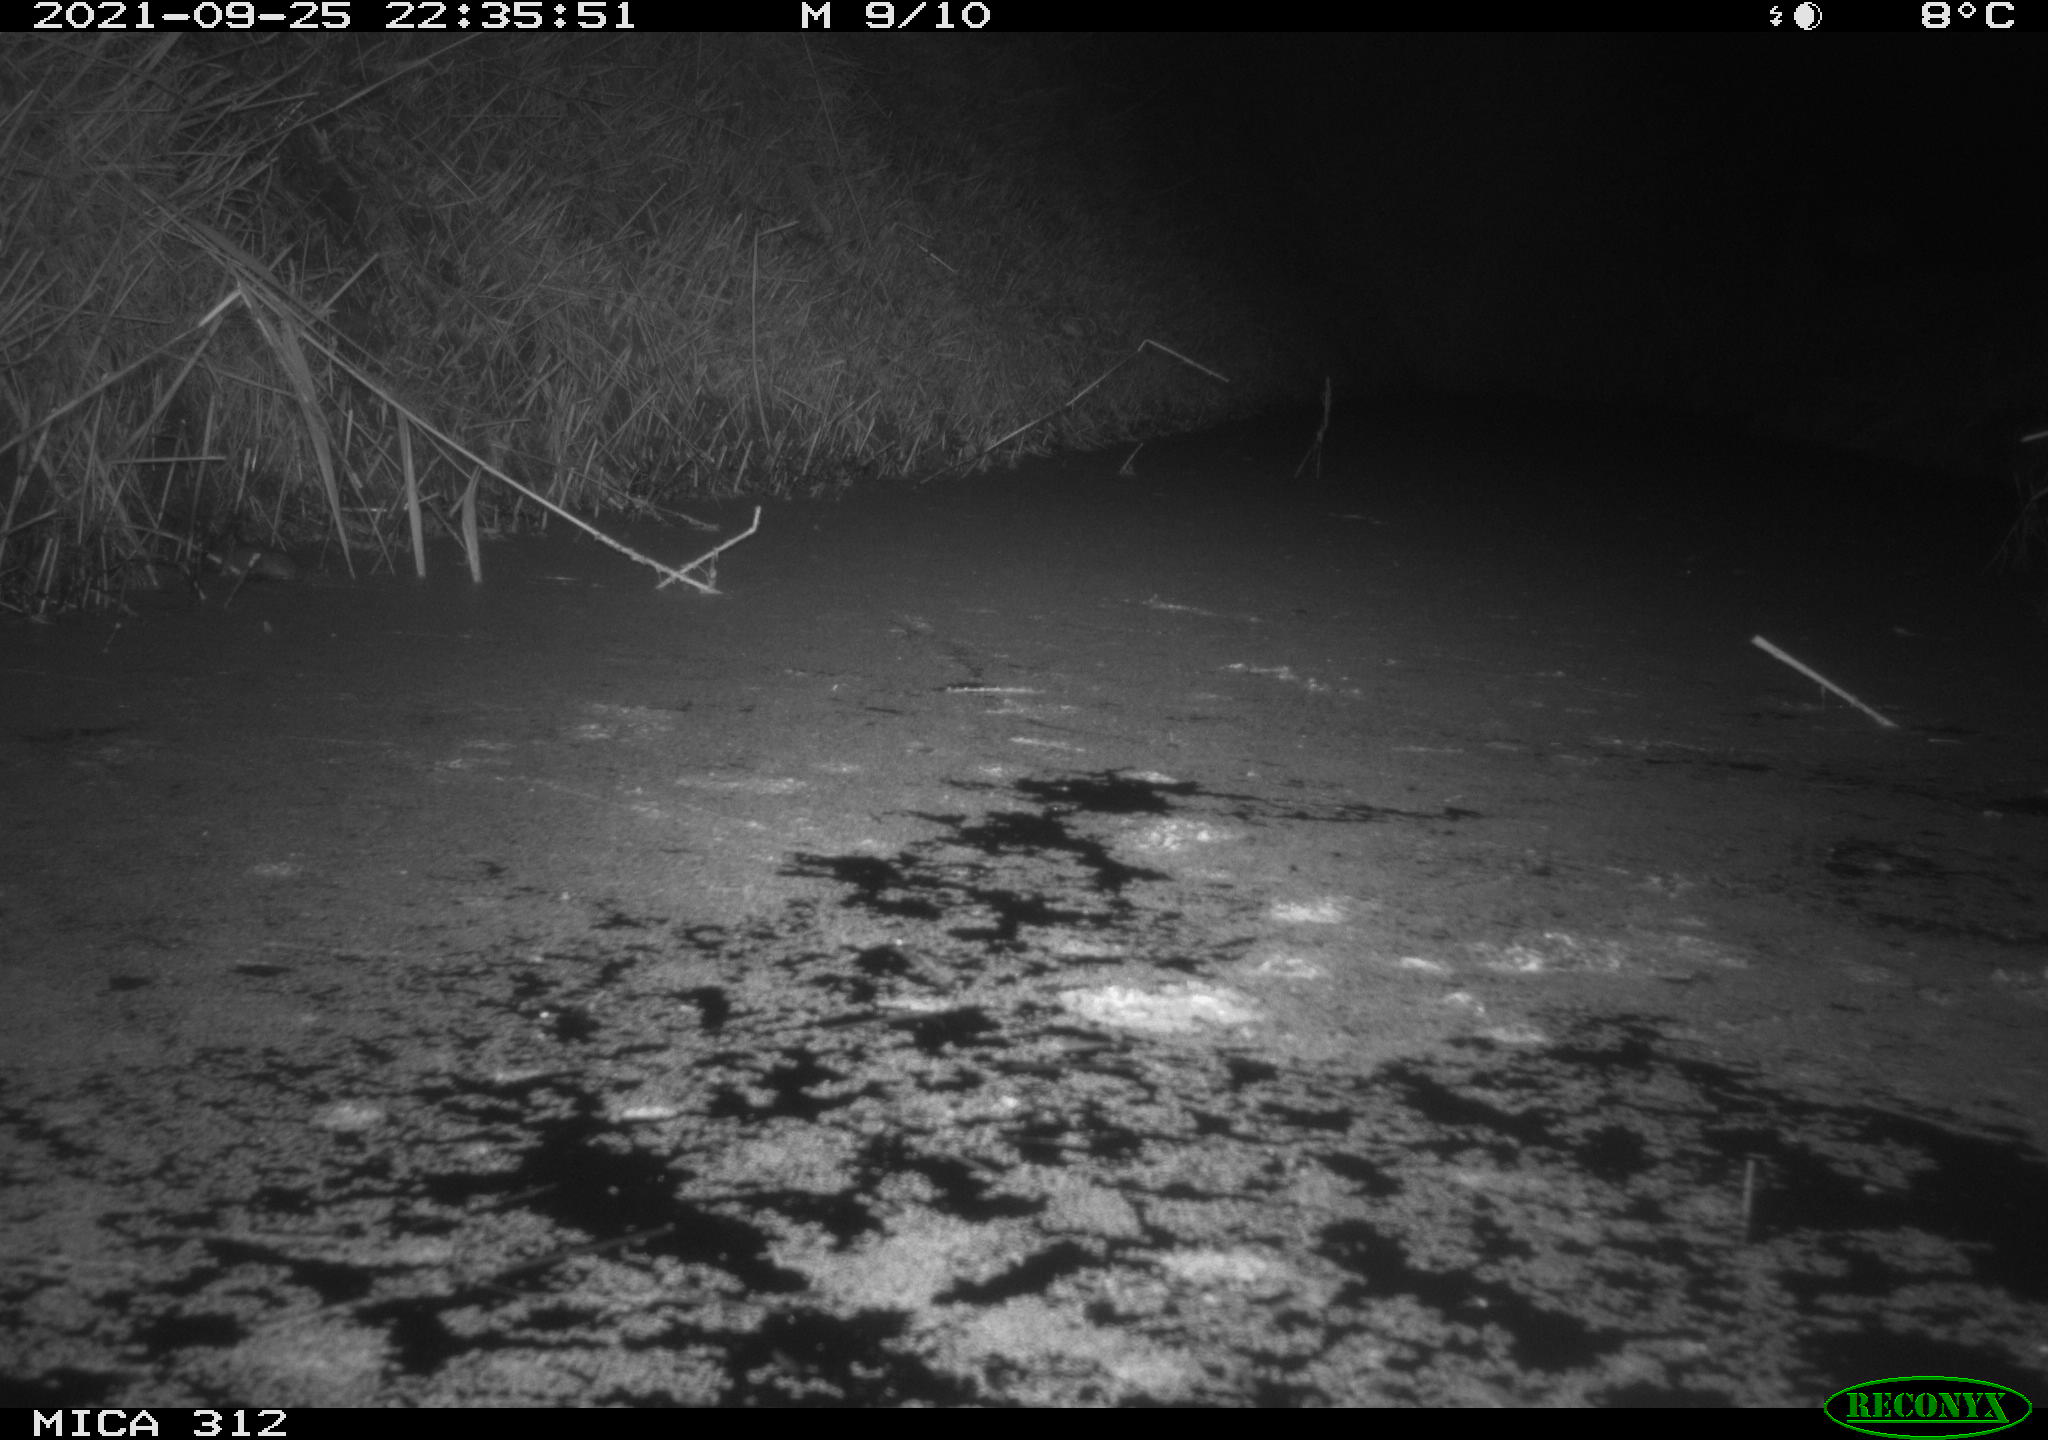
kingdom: Animalia
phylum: Chordata
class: Mammalia
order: Rodentia
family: Muridae
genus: Rattus
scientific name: Rattus norvegicus
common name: Brown rat
